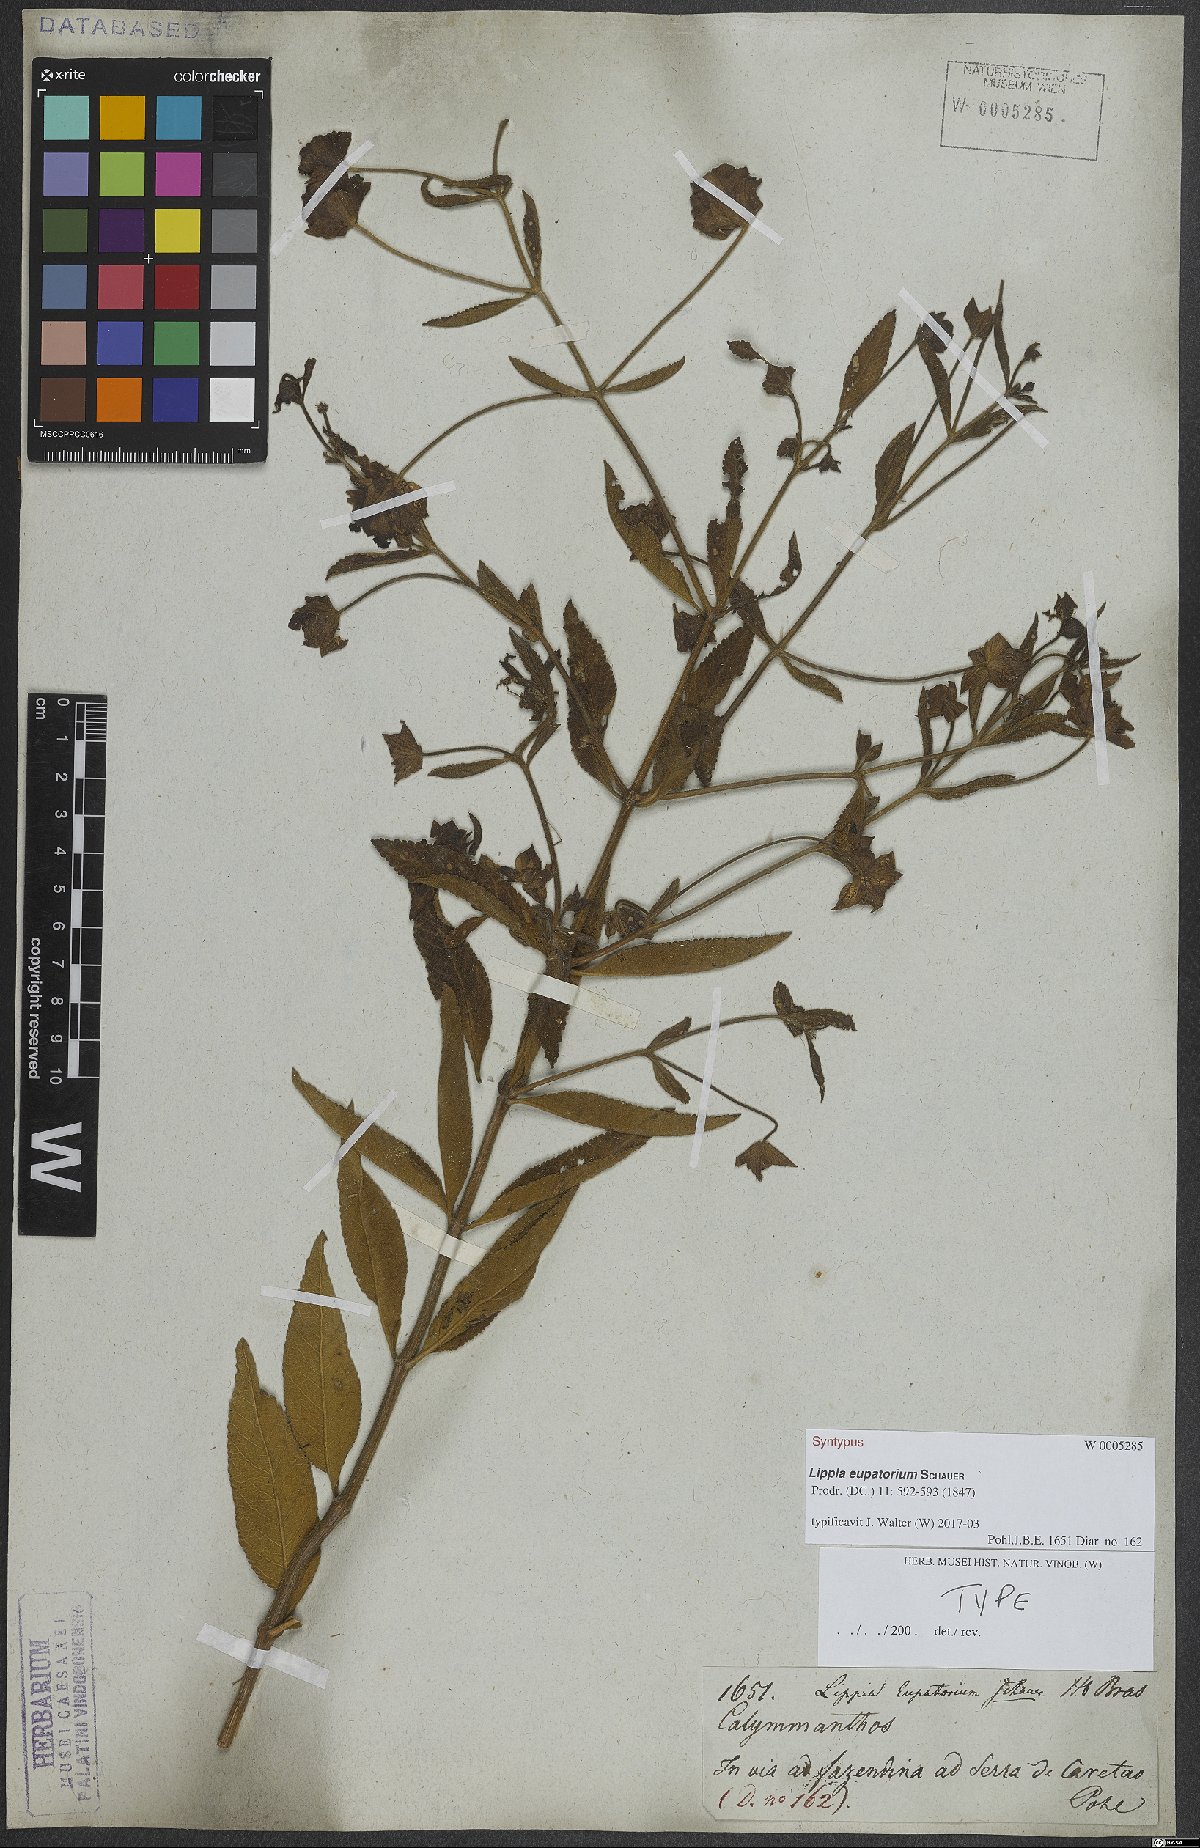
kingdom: Plantae
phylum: Tracheophyta
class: Magnoliopsida
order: Lamiales
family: Verbenaceae
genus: Lippia
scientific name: Lippia eupatorium
